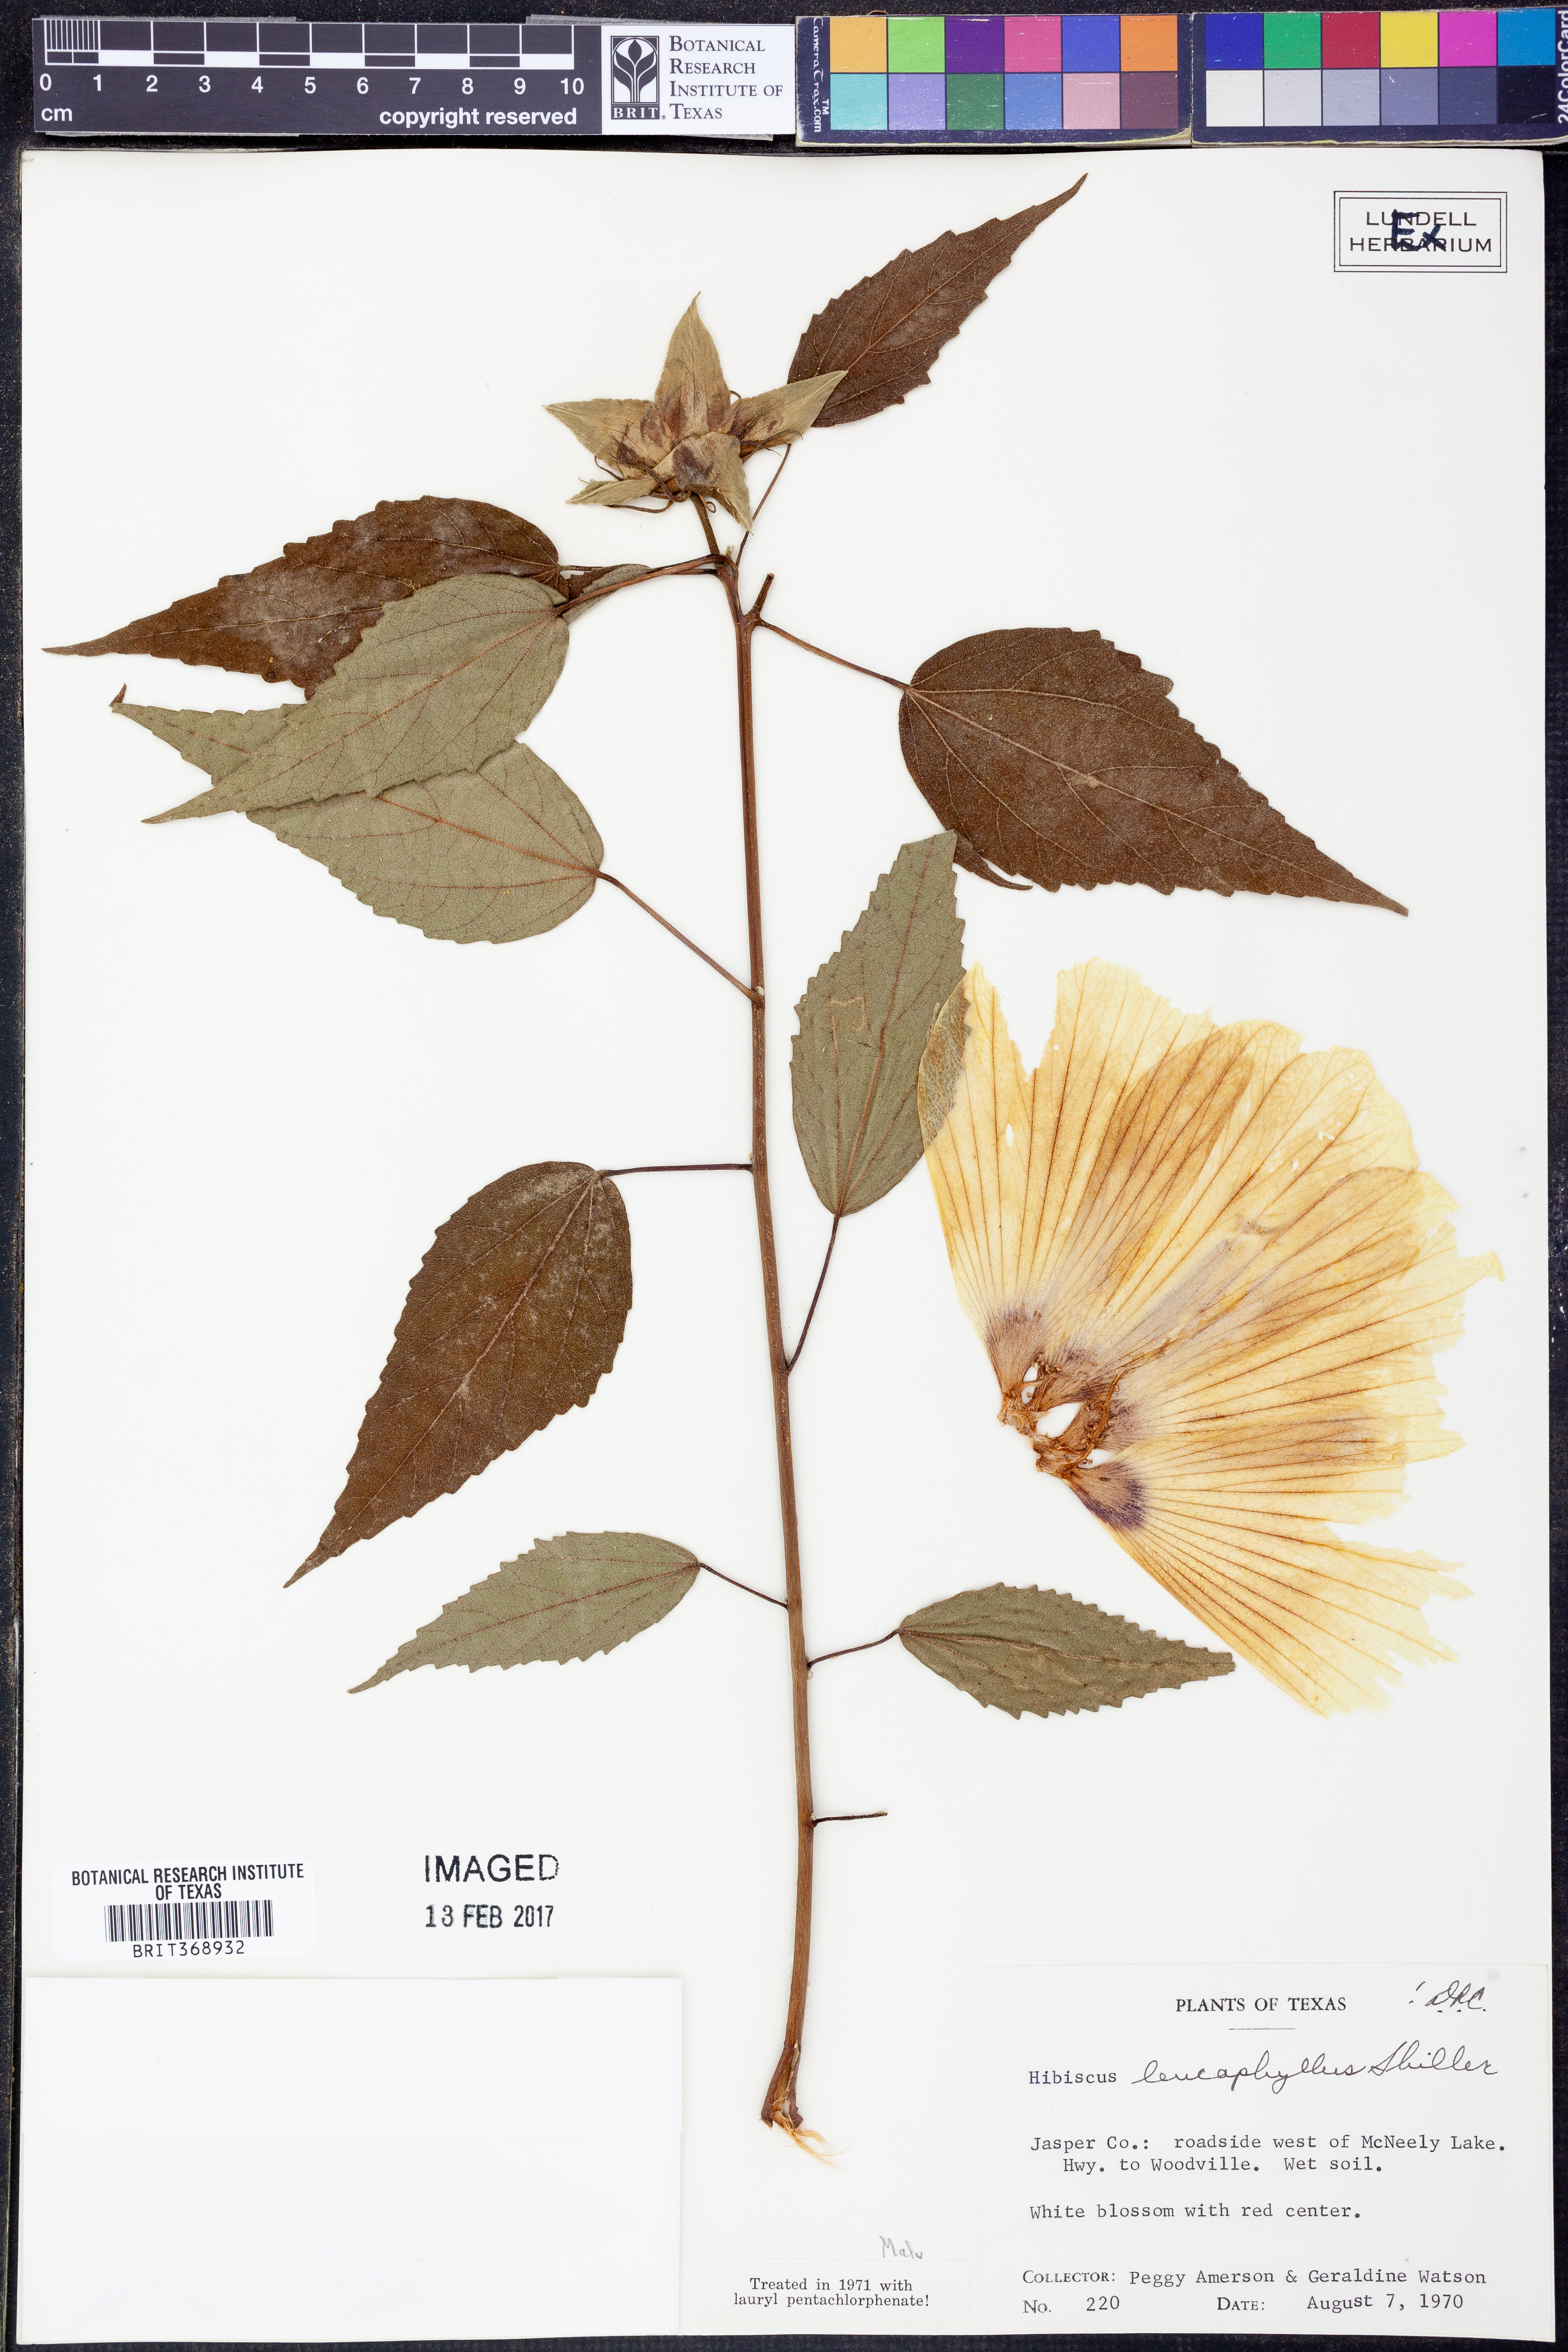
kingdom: Plantae
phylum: Tracheophyta
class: Magnoliopsida
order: Malvales
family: Malvaceae
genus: Hibiscus
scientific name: Hibiscus moscheutos
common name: Common rose-mallow
